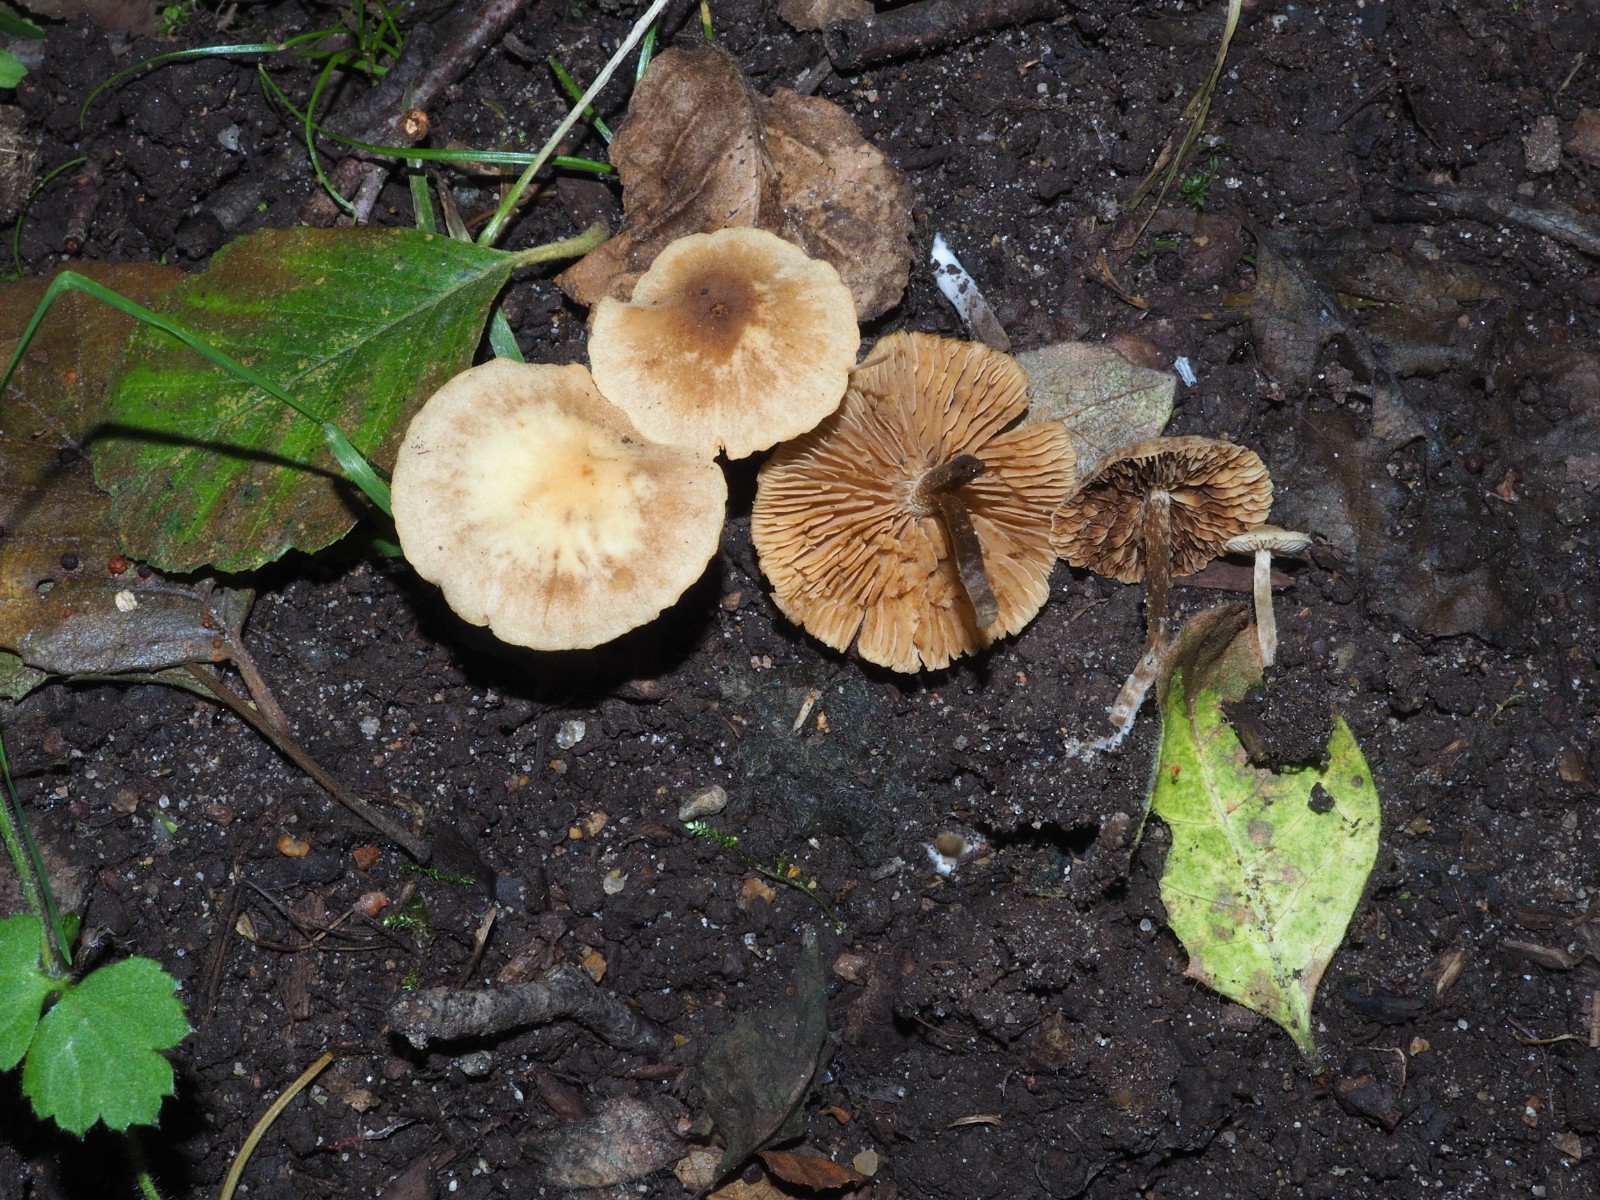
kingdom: Fungi
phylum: Basidiomycota
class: Agaricomycetes
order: Agaricales
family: Hymenogastraceae
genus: Naucoria
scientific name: Naucoria
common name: knaphat
